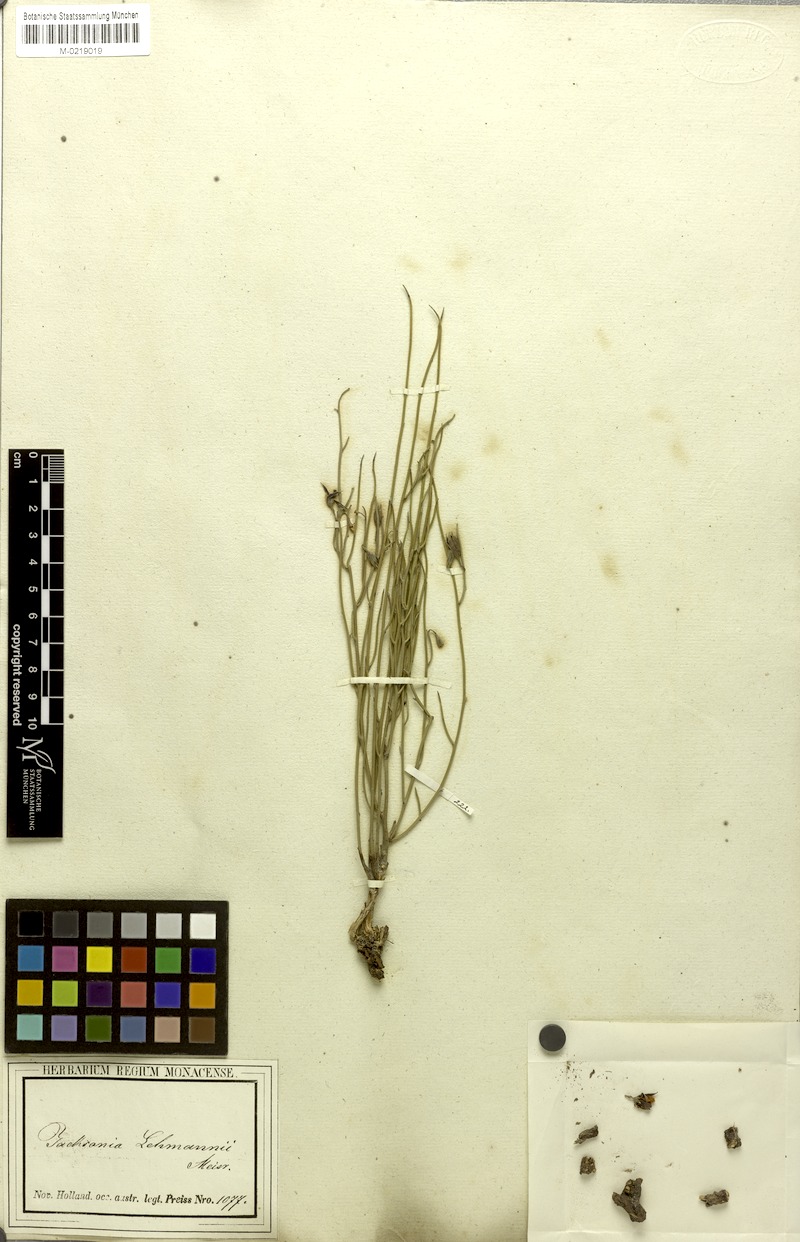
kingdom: Plantae
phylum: Tracheophyta
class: Magnoliopsida
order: Fabales
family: Fabaceae
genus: Jacksonia
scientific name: Jacksonia lehmannii
